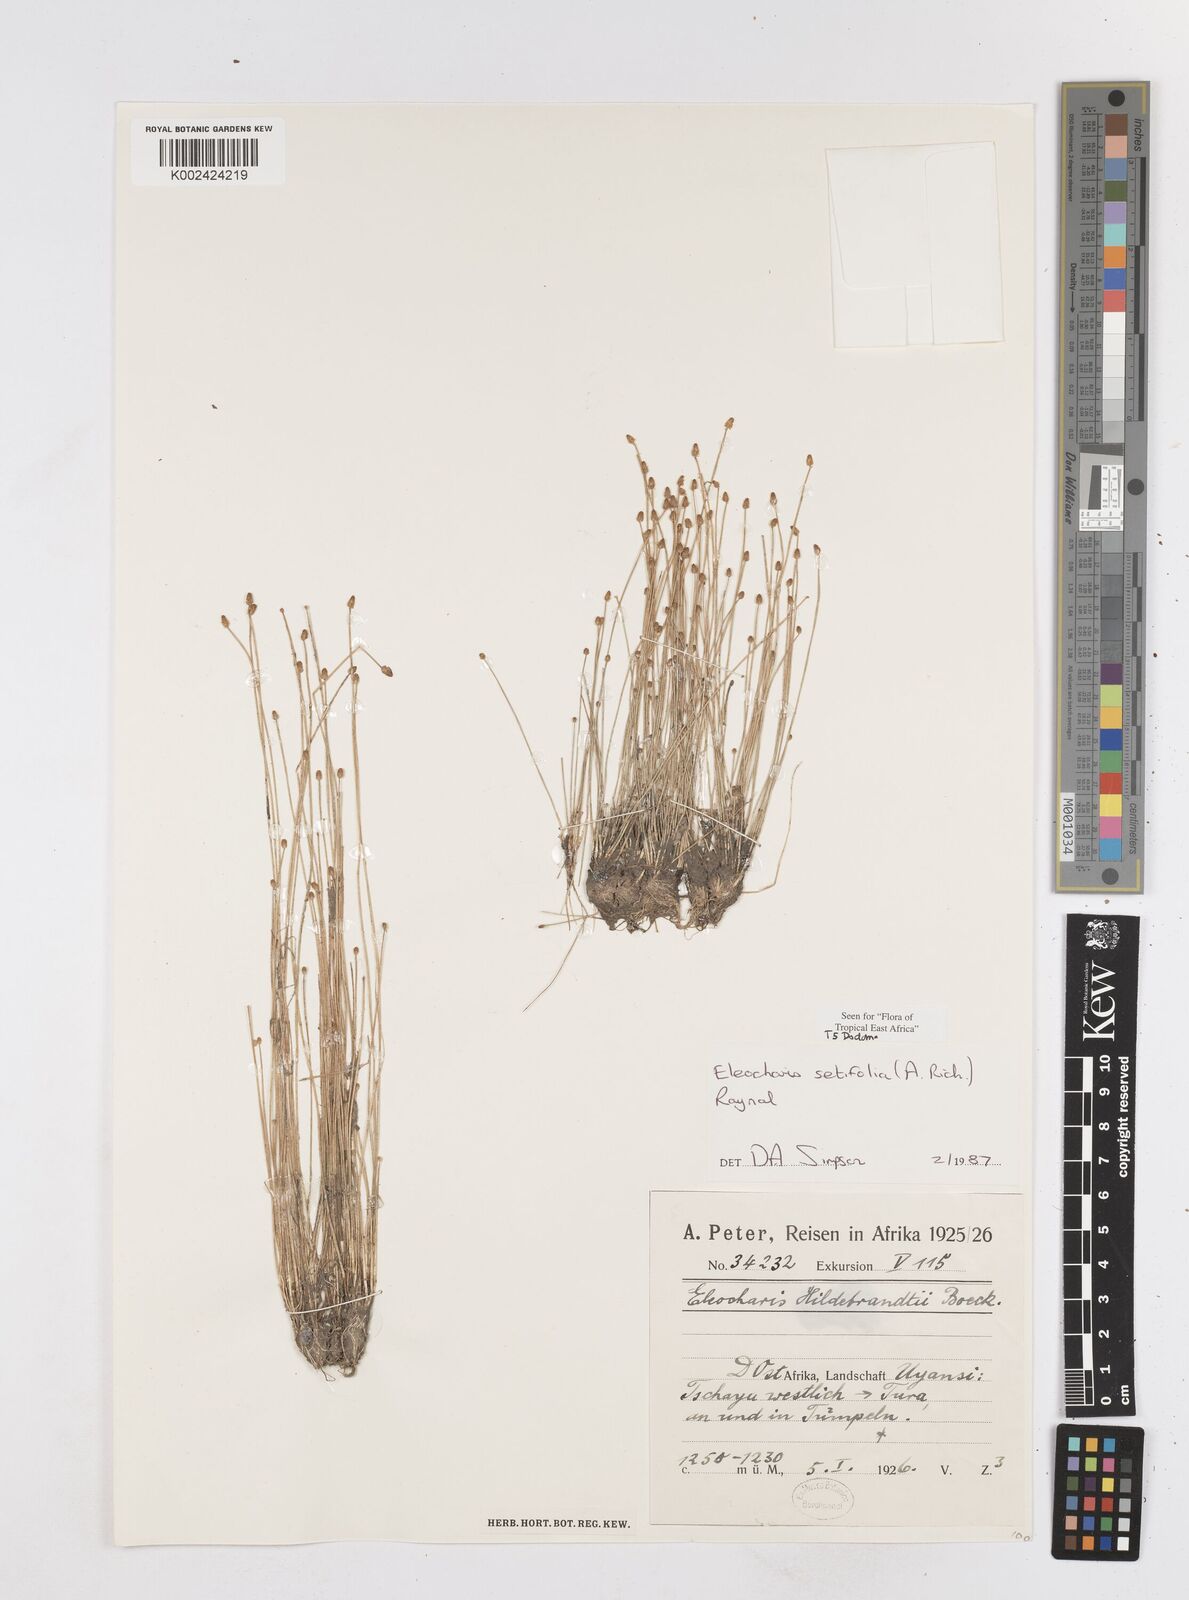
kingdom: Plantae
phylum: Tracheophyta
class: Liliopsida
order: Poales
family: Cyperaceae
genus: Eleocharis
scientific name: Eleocharis setifolia
